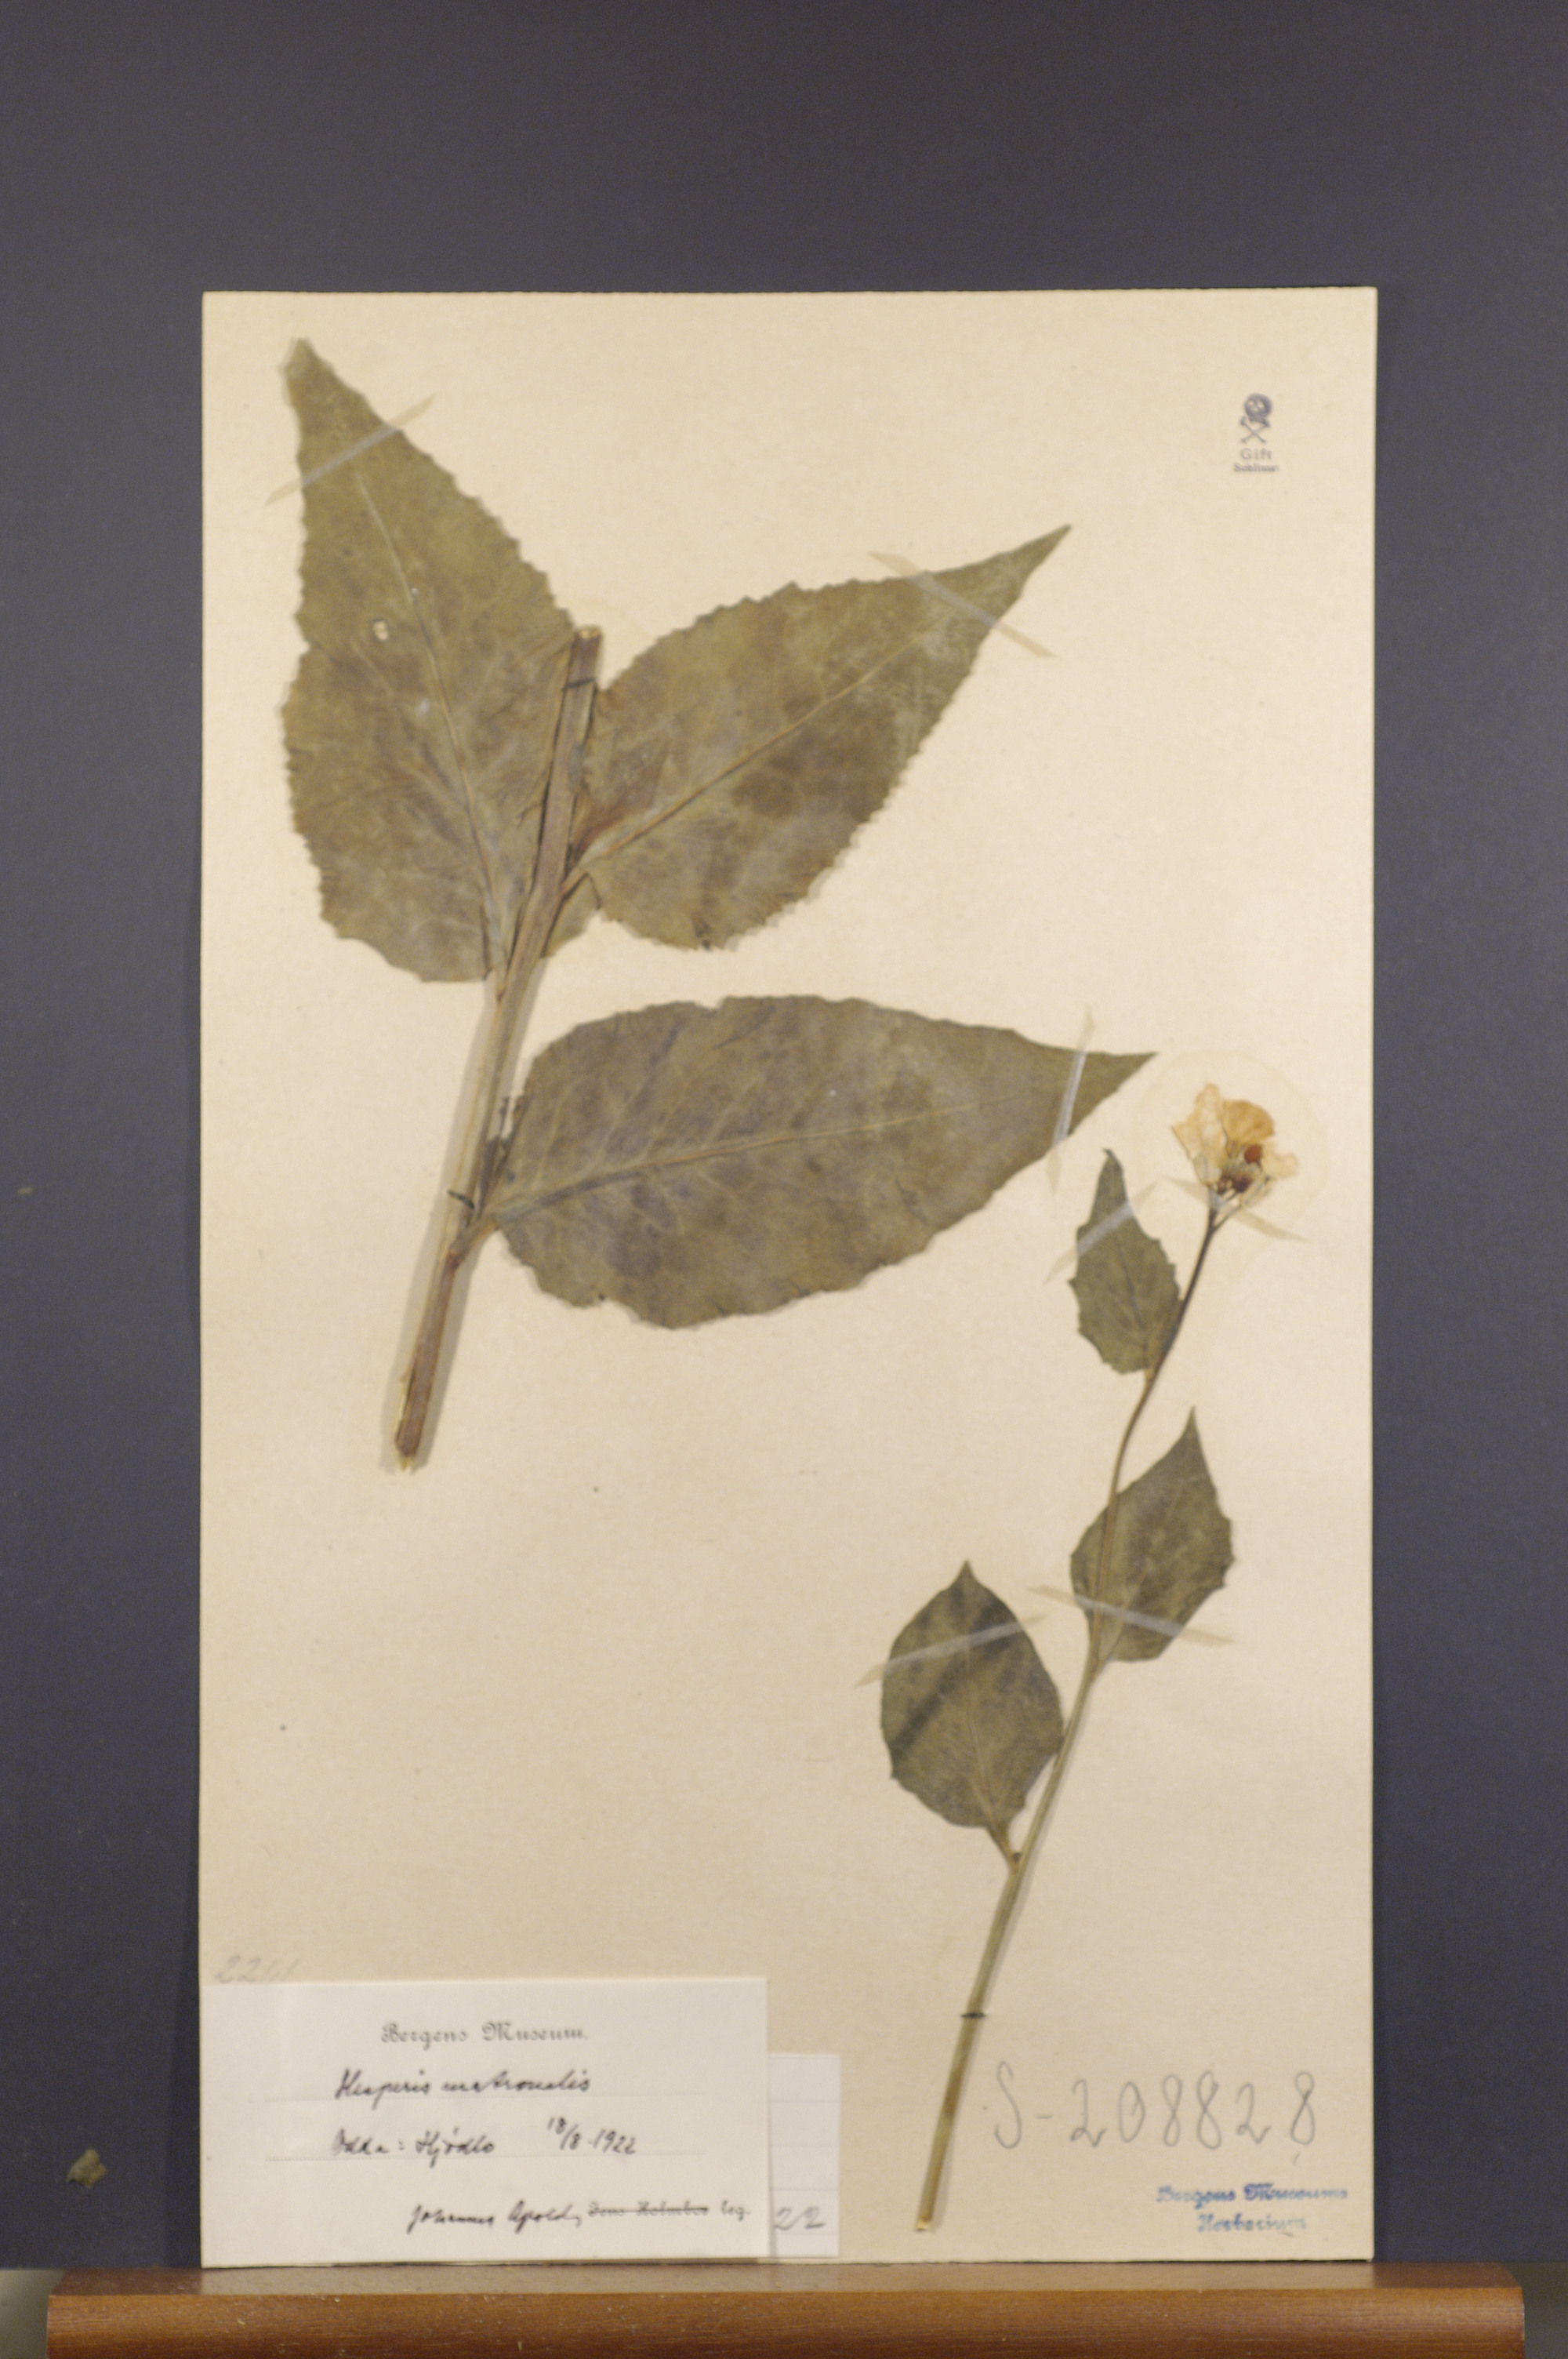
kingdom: Plantae
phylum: Tracheophyta
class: Magnoliopsida
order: Brassicales
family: Brassicaceae
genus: Hesperis
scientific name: Hesperis matronalis
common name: Dame's-violet
